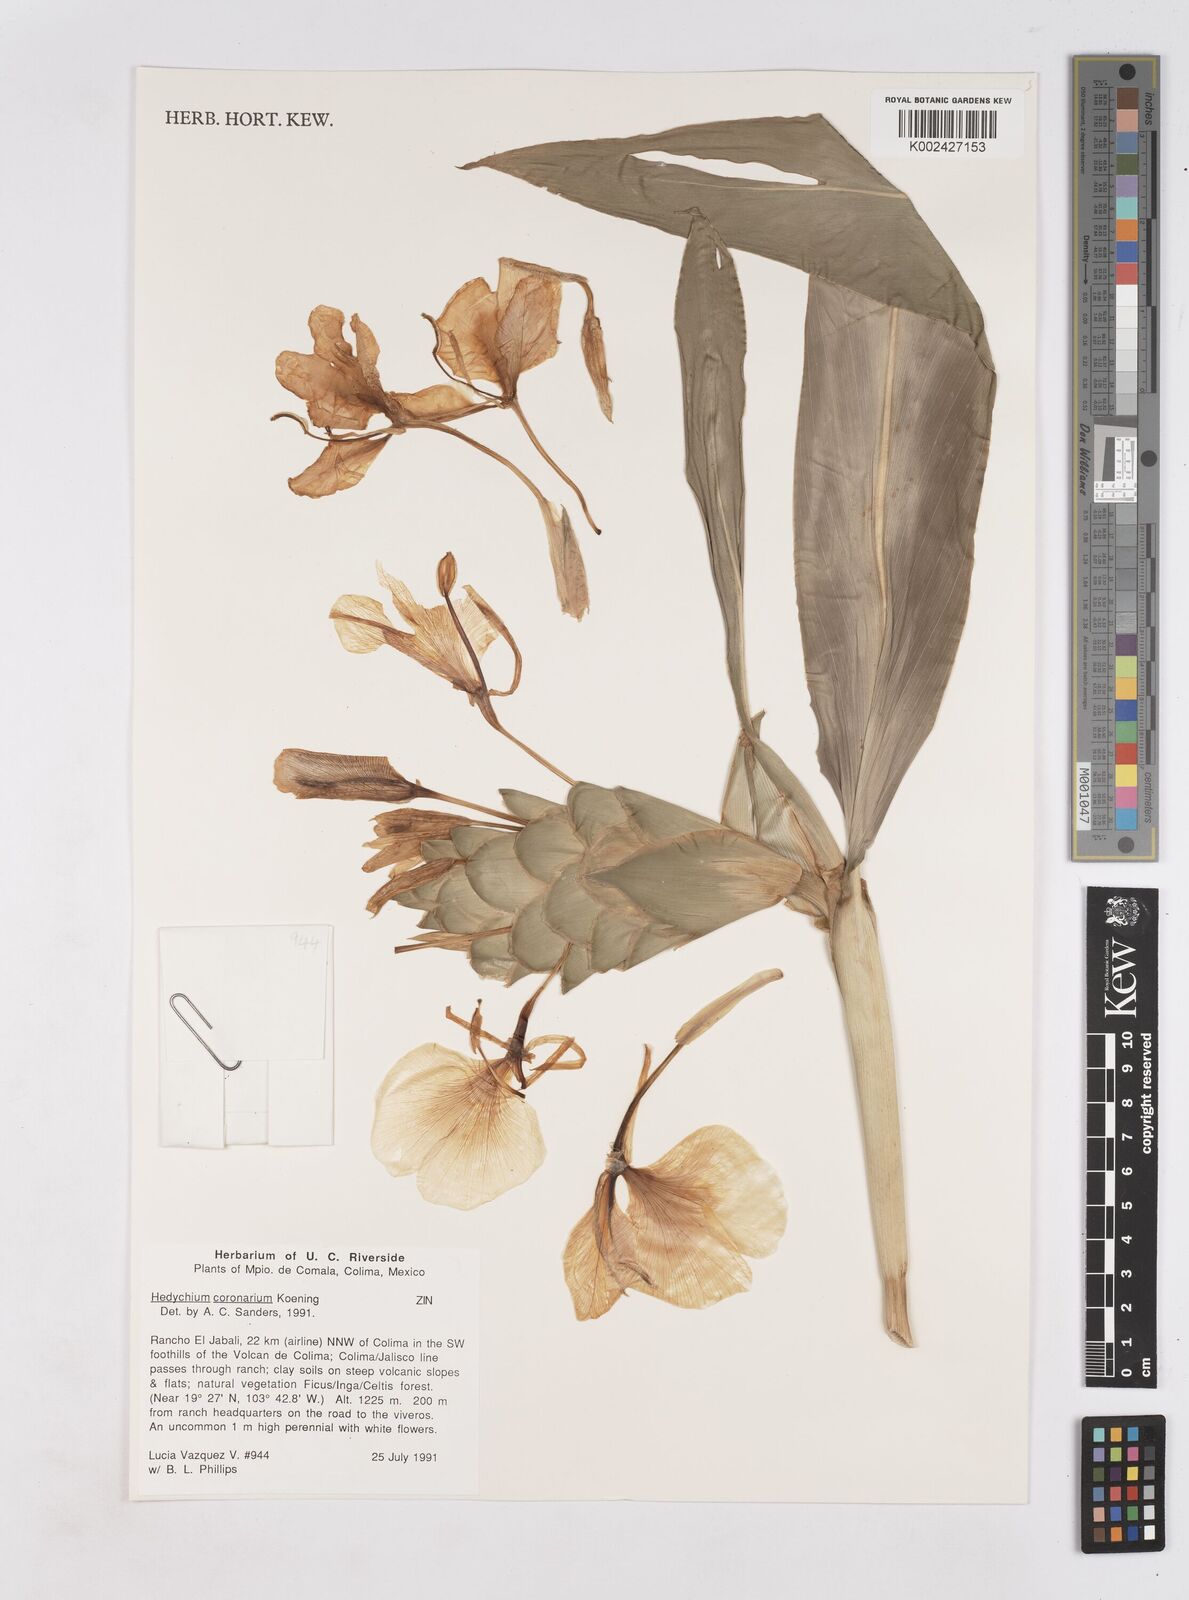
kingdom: Plantae
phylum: Tracheophyta
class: Liliopsida
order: Zingiberales
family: Zingiberaceae
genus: Hedychium
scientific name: Hedychium coronarium
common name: White garland-lily
